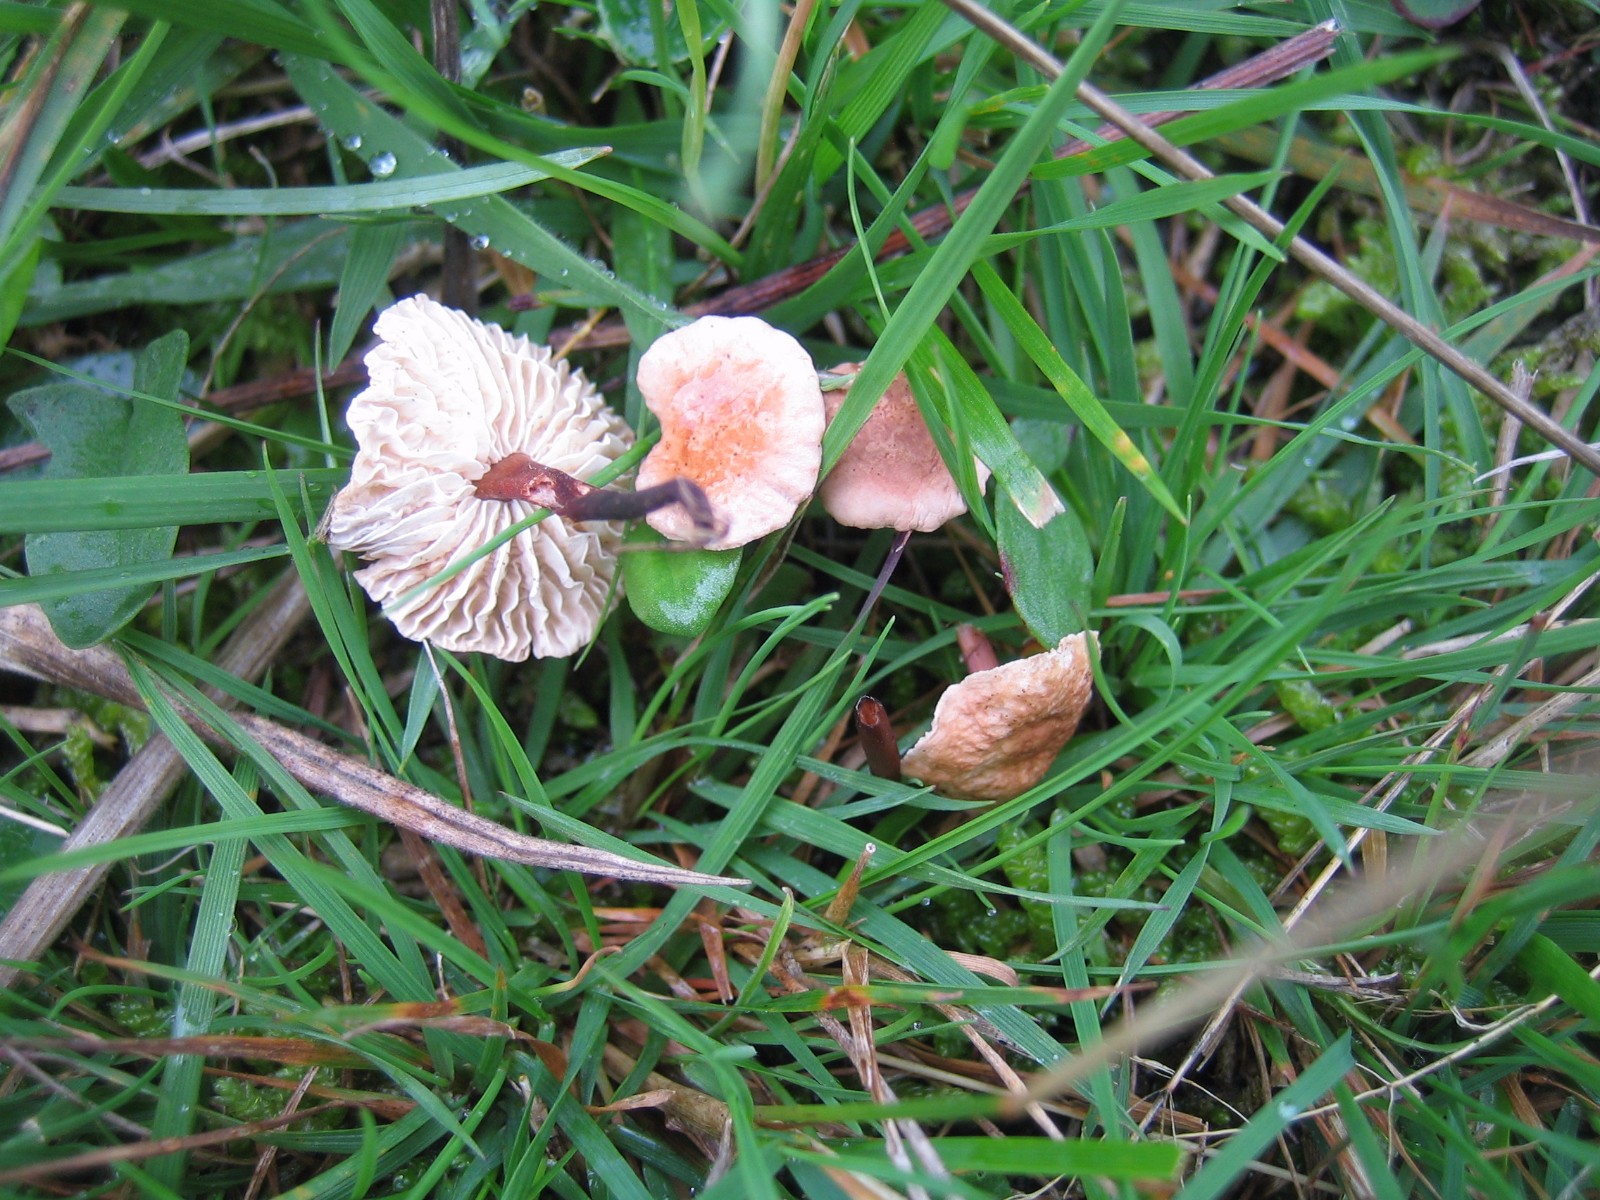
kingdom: Fungi
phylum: Basidiomycota
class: Agaricomycetes
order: Agaricales
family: Omphalotaceae
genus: Mycetinis
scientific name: Mycetinis scorodonius
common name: lille løghat
